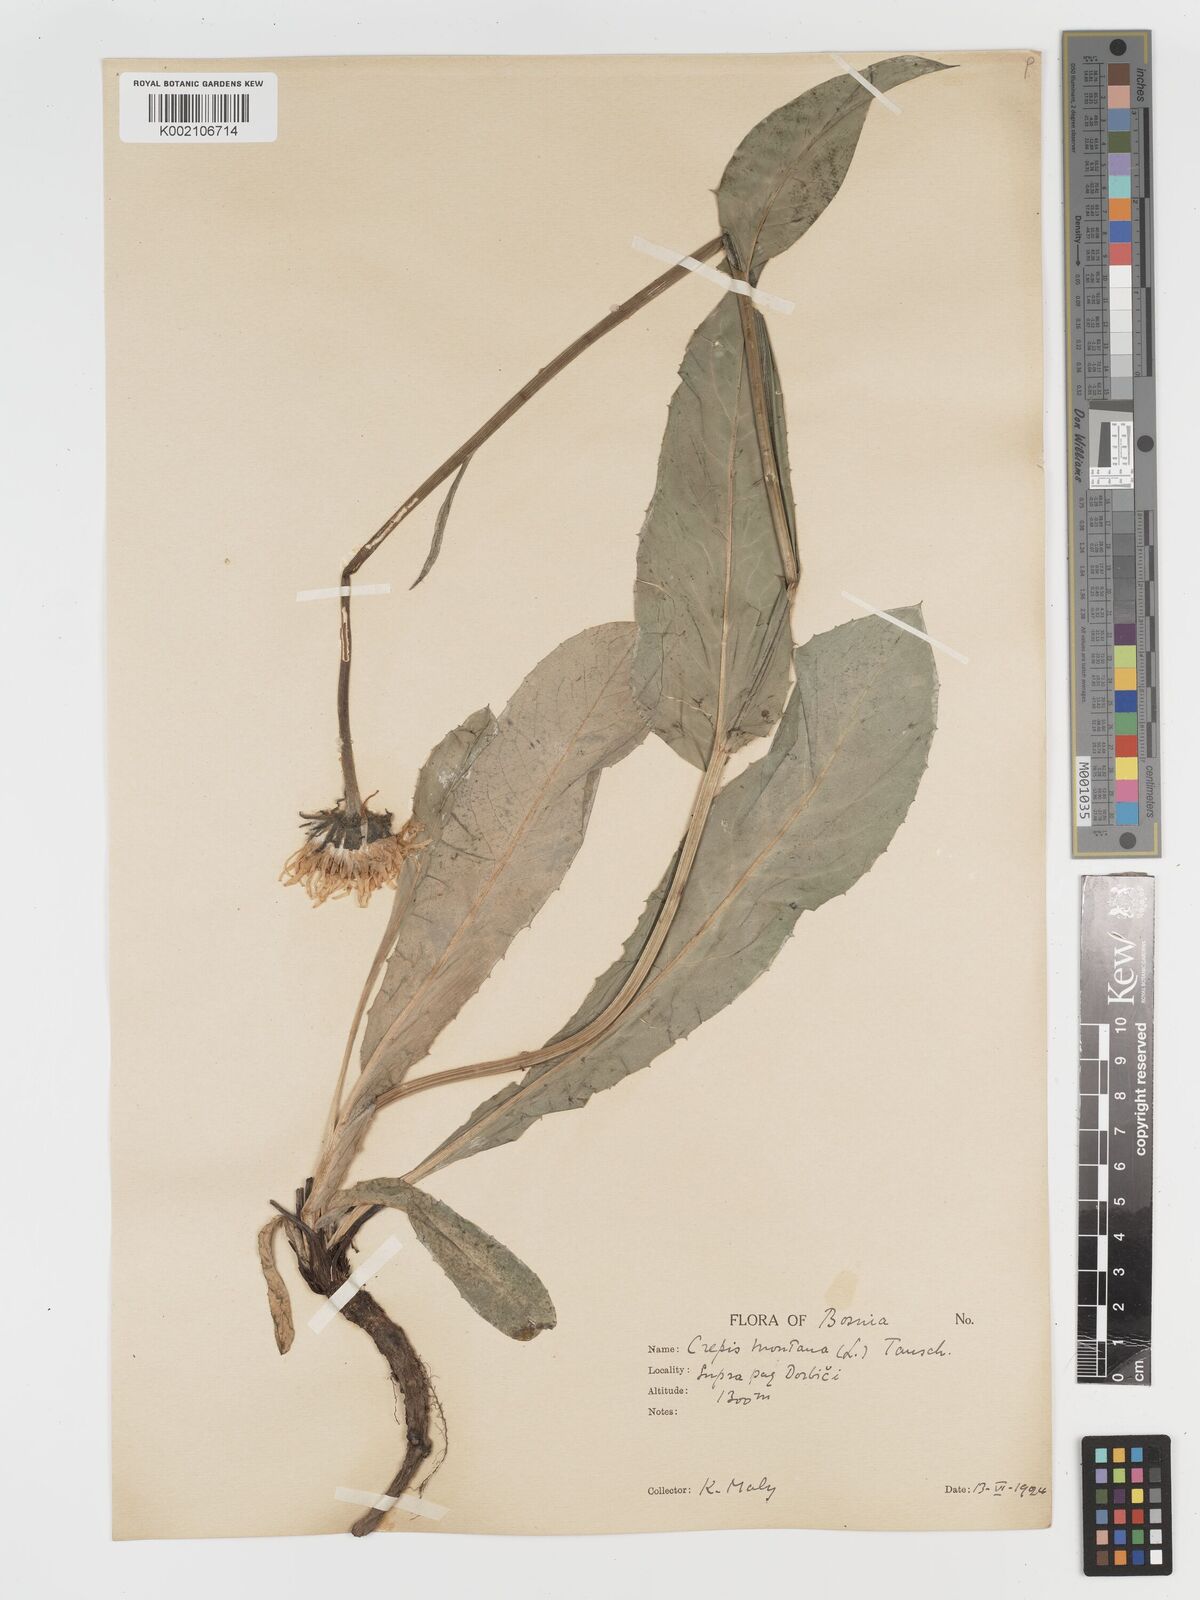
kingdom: Plantae
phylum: Tracheophyta
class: Magnoliopsida
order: Asterales
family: Asteraceae
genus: Crepis
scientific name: Crepis pontana
